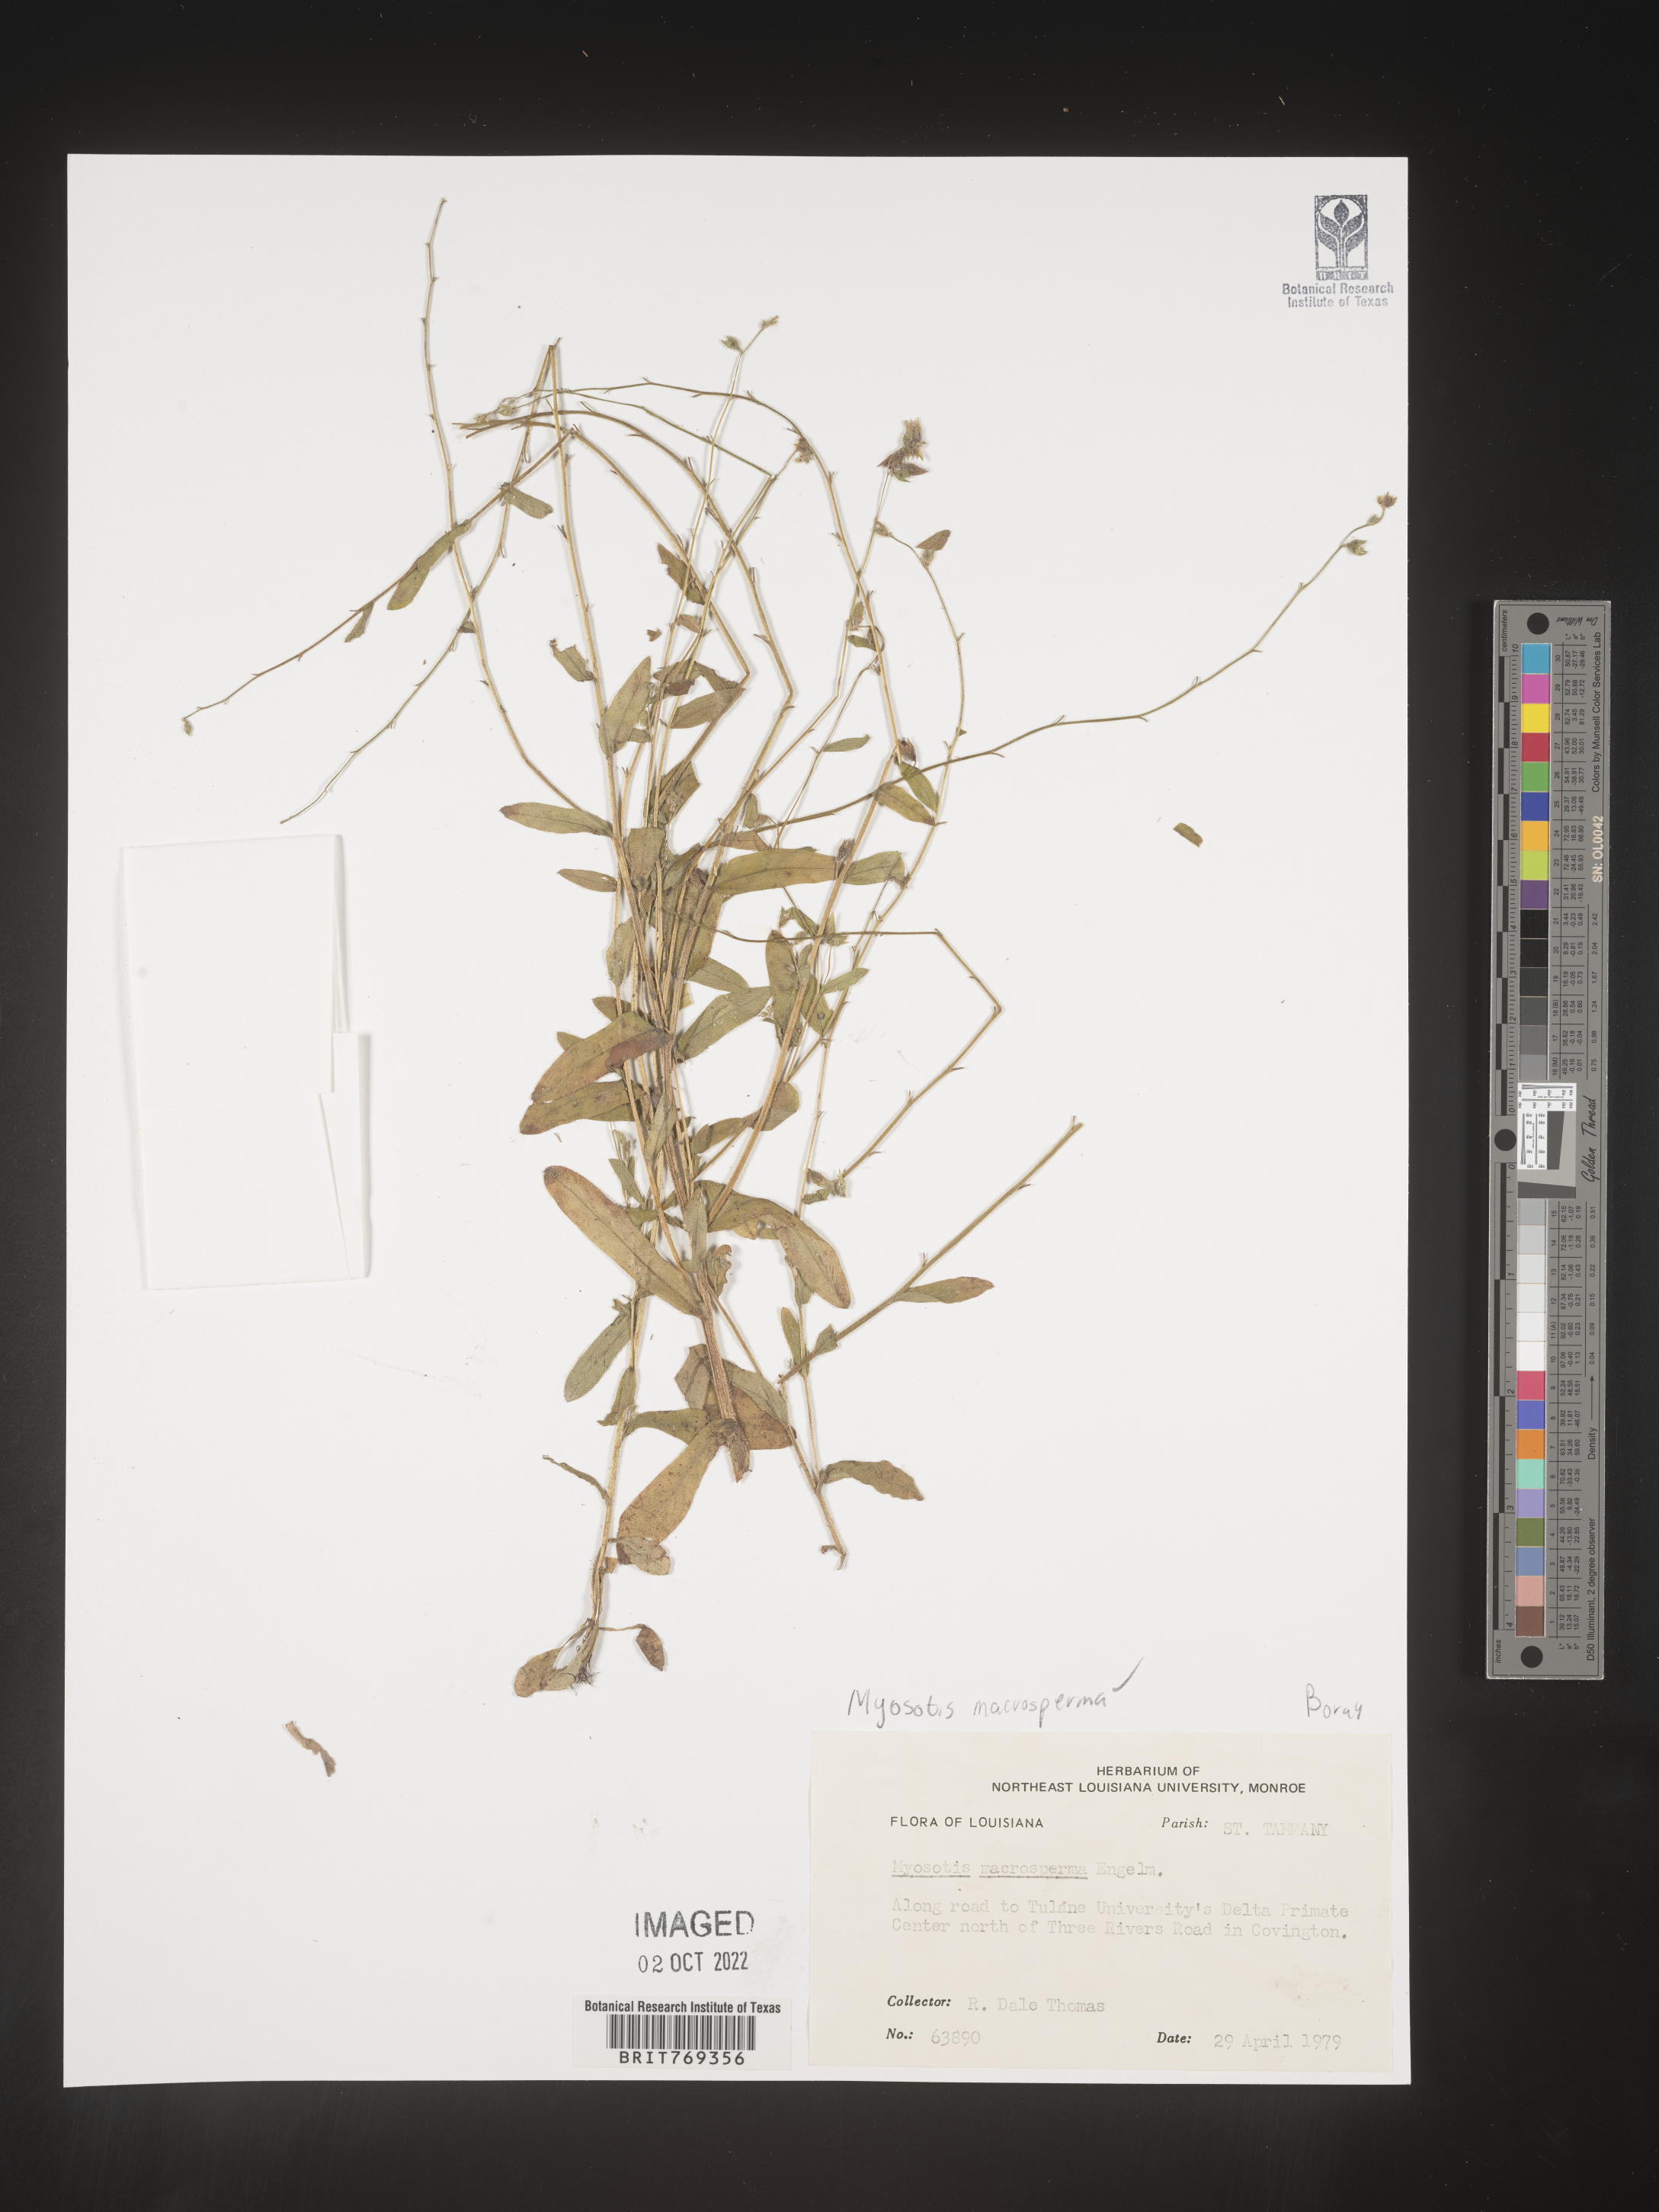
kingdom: Plantae
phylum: Tracheophyta
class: Magnoliopsida
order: Boraginales
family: Boraginaceae
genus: Myosotis
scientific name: Myosotis macrosperma
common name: Large-seed forget-me-not
